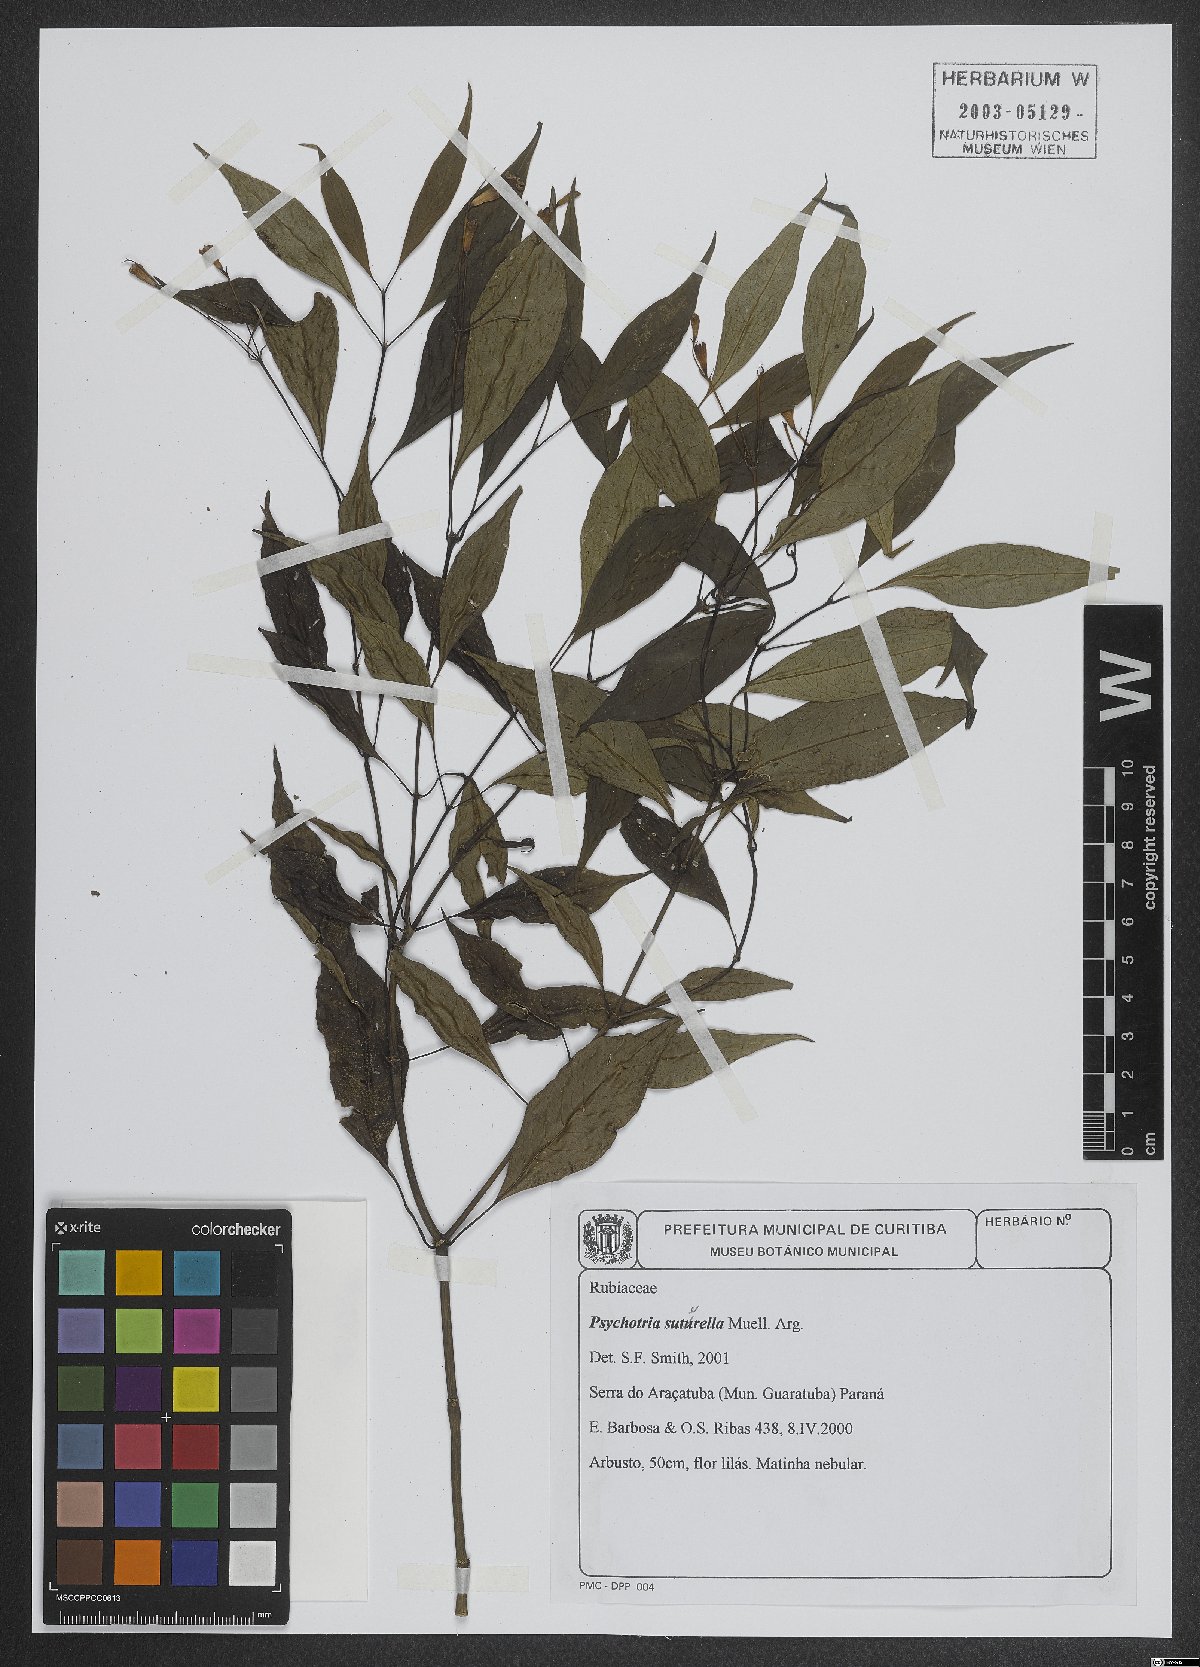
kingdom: Plantae
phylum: Tracheophyta
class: Magnoliopsida
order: Gentianales
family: Rubiaceae
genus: Psychotria
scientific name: Psychotria suterella
